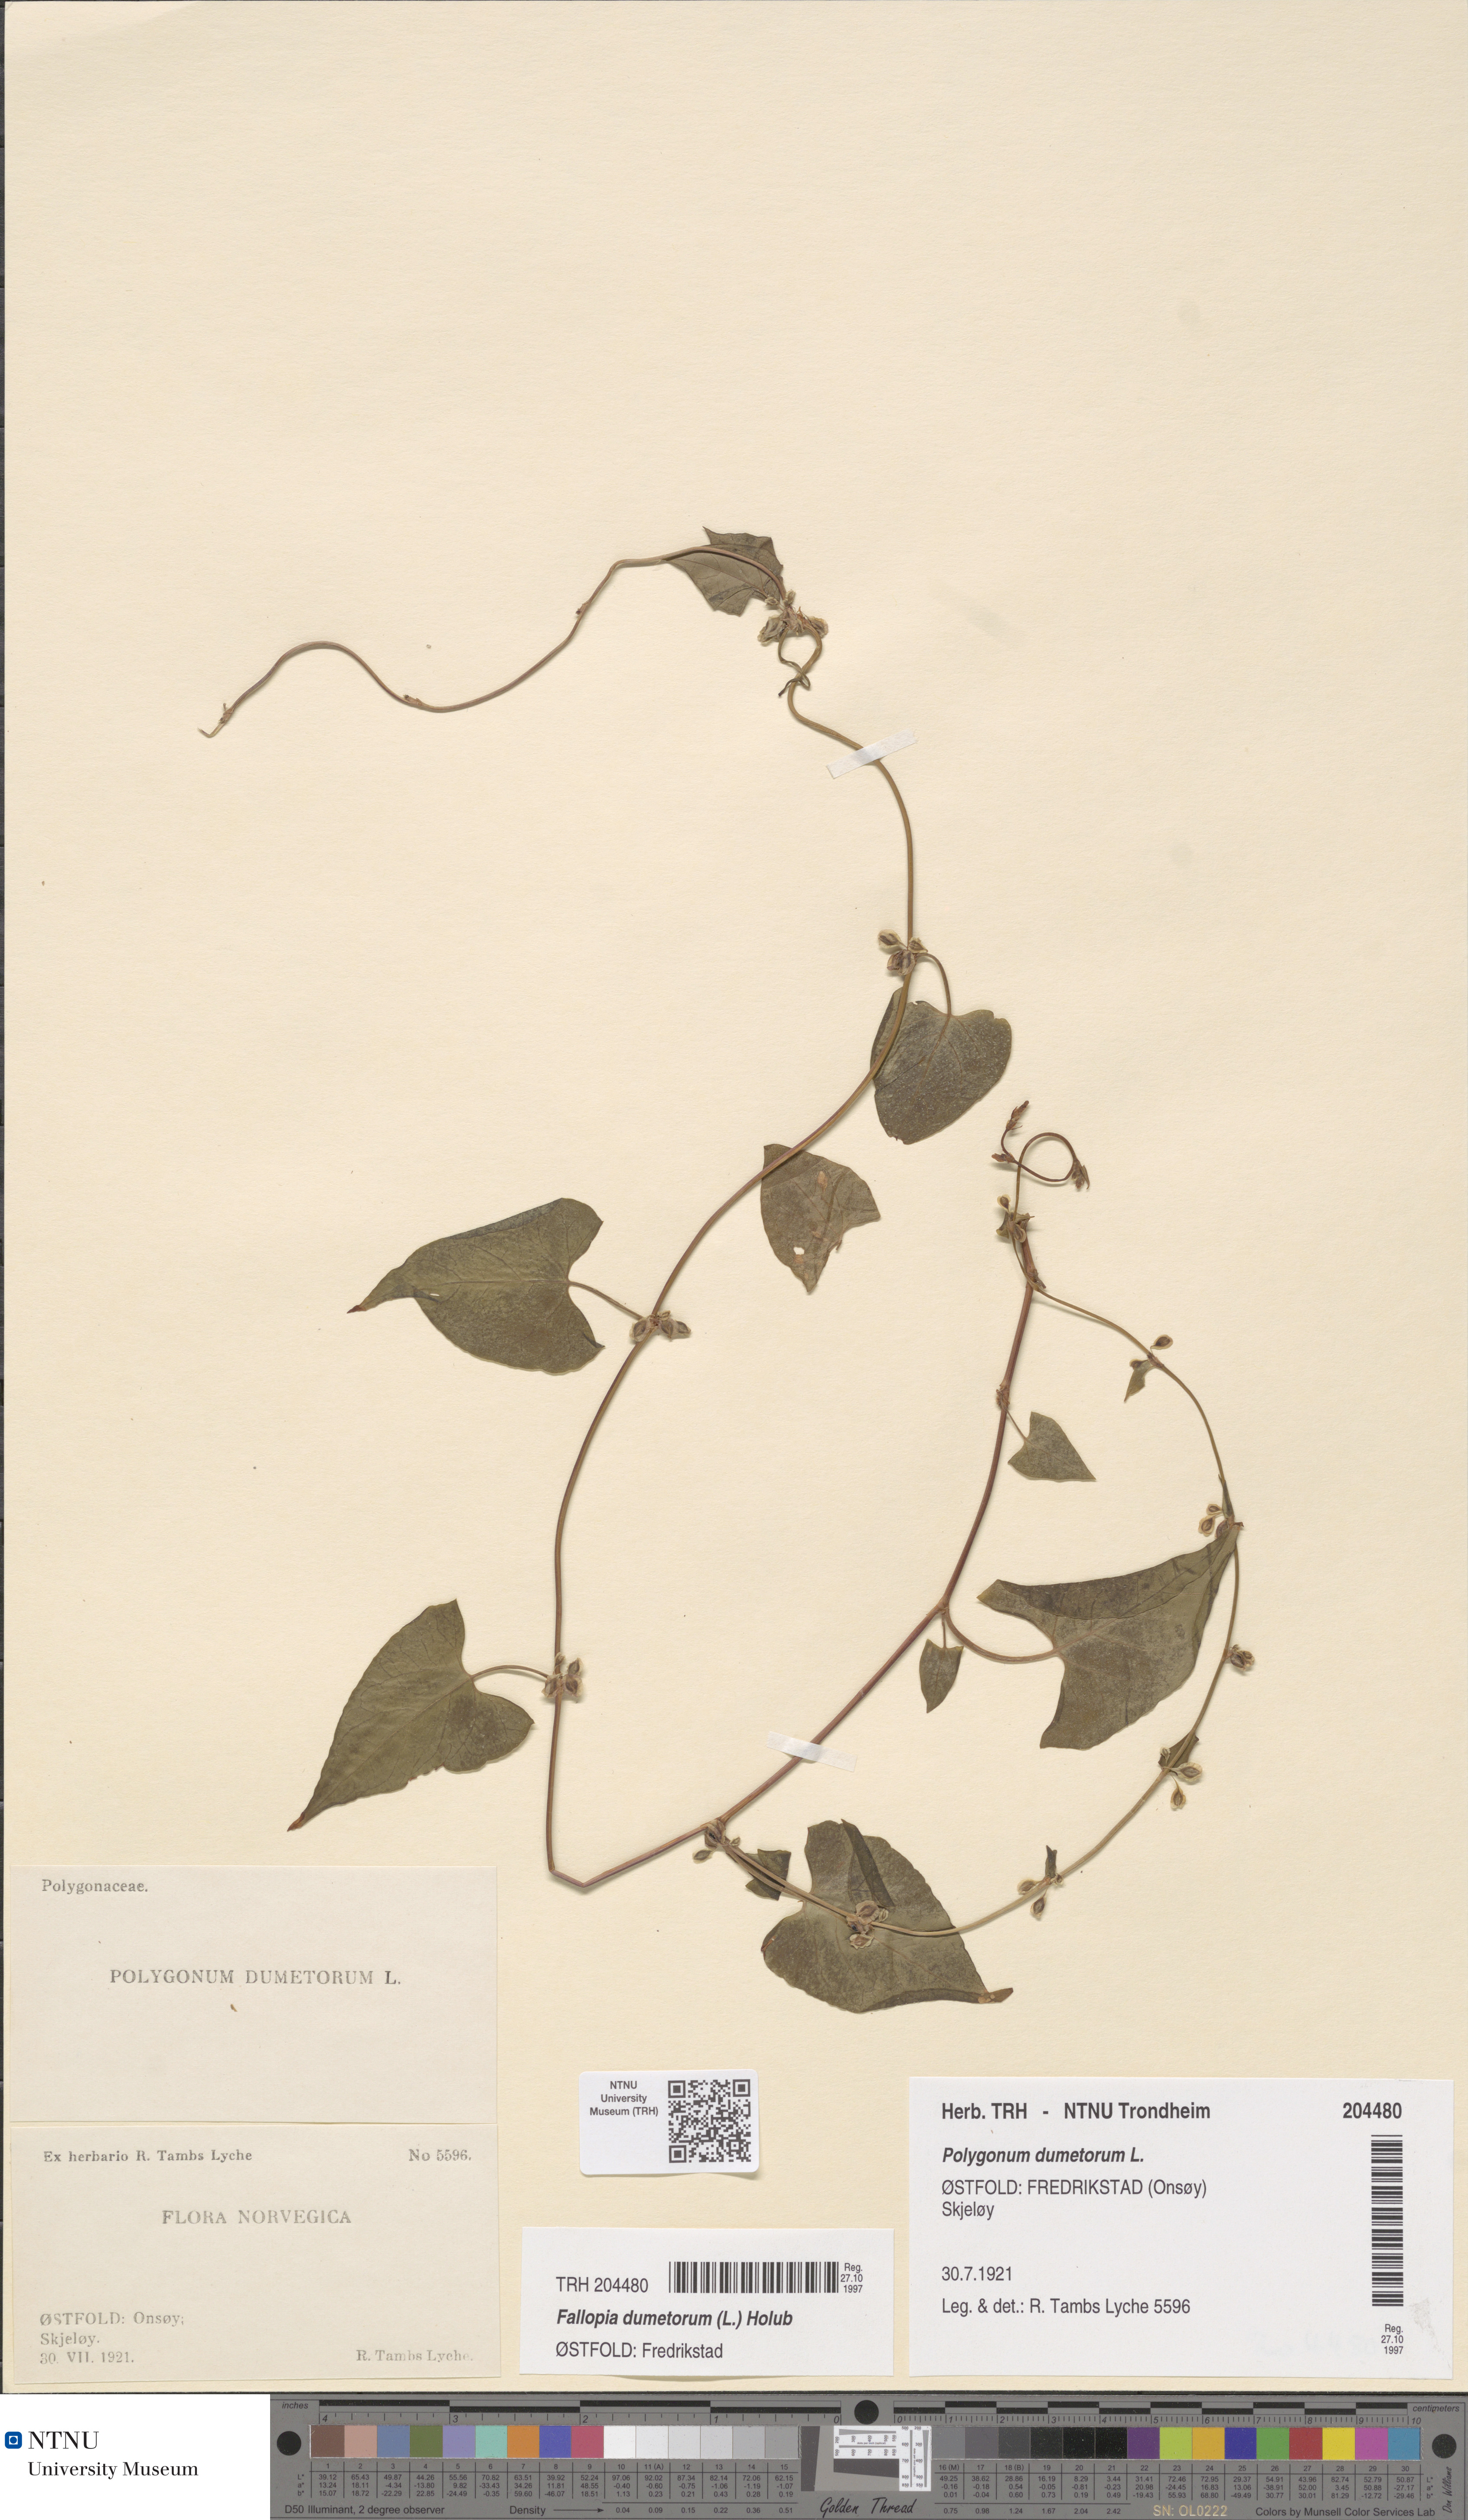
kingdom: Plantae
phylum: Tracheophyta
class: Magnoliopsida
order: Caryophyllales
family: Polygonaceae
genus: Fallopia
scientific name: Fallopia dumetorum
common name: Copse-bindweed
